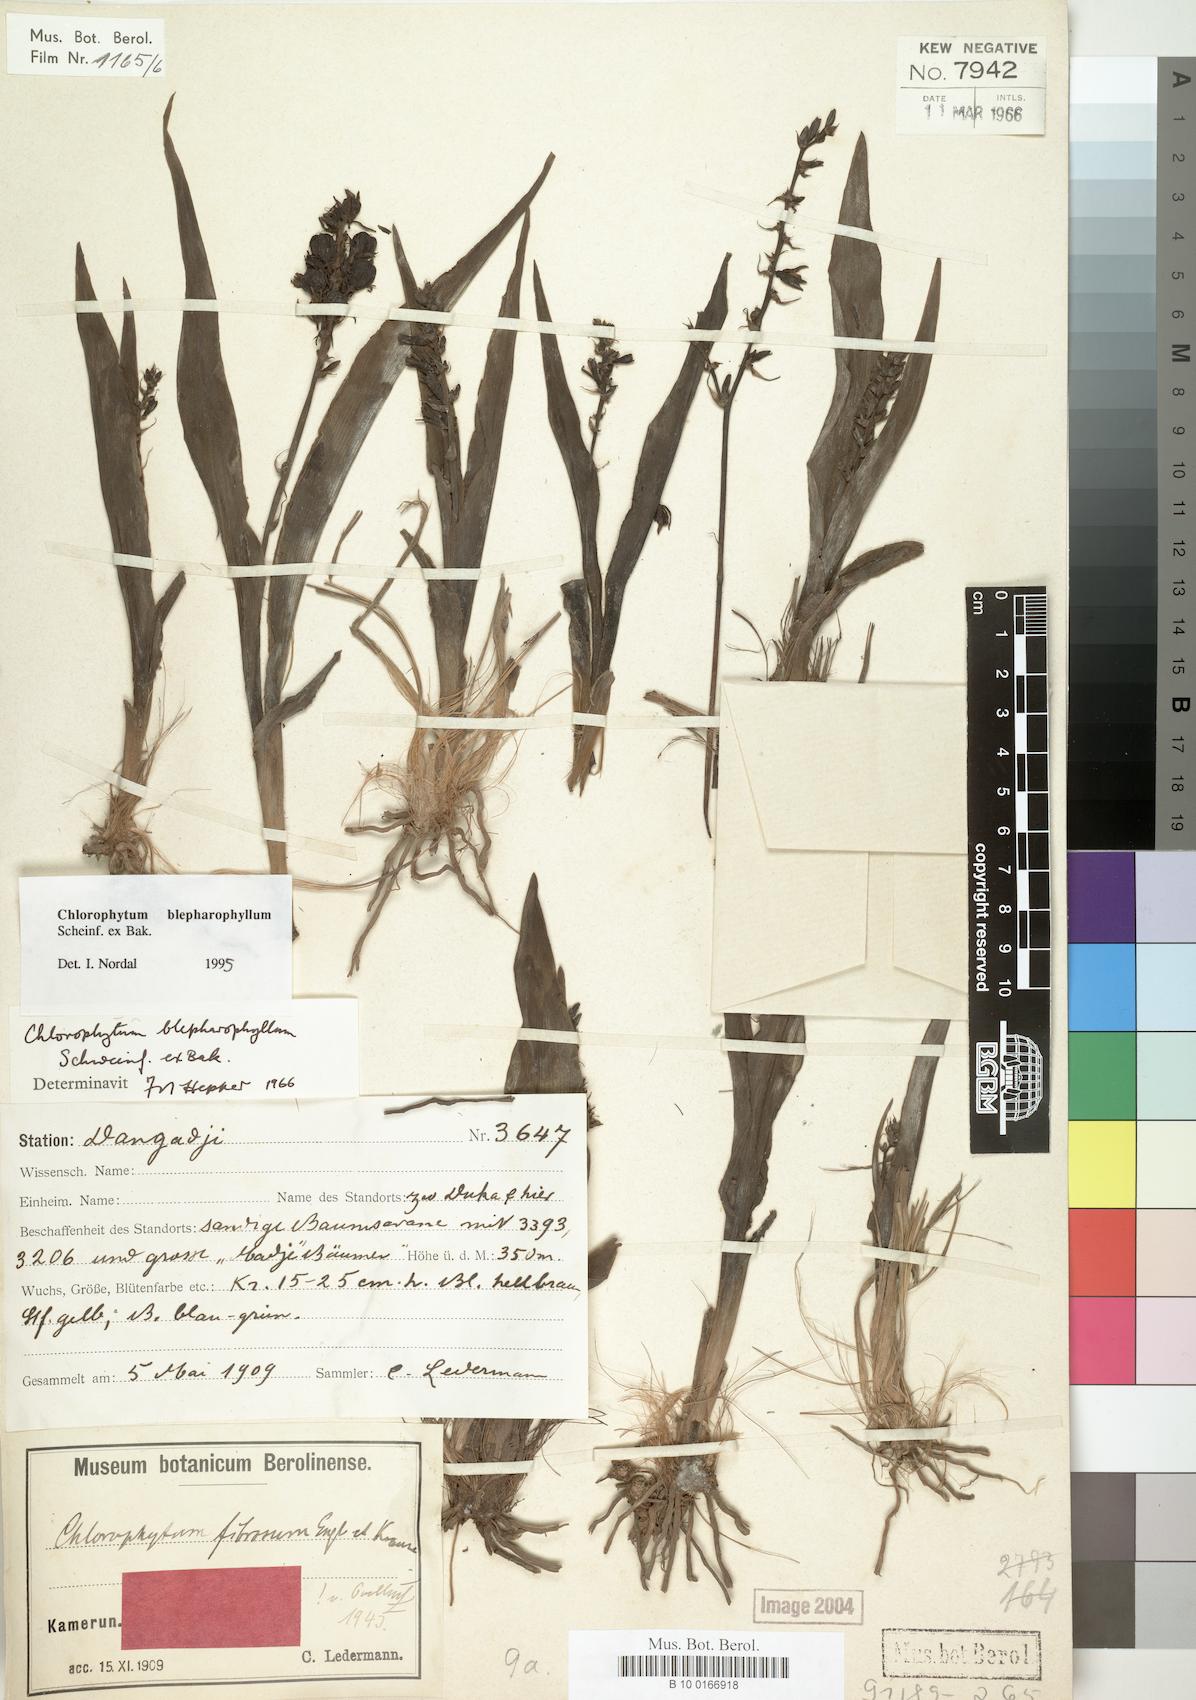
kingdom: Plantae
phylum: Tracheophyta
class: Liliopsida
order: Asparagales
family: Asparagaceae
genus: Chlorophytum
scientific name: Chlorophytum blepharophyllum
